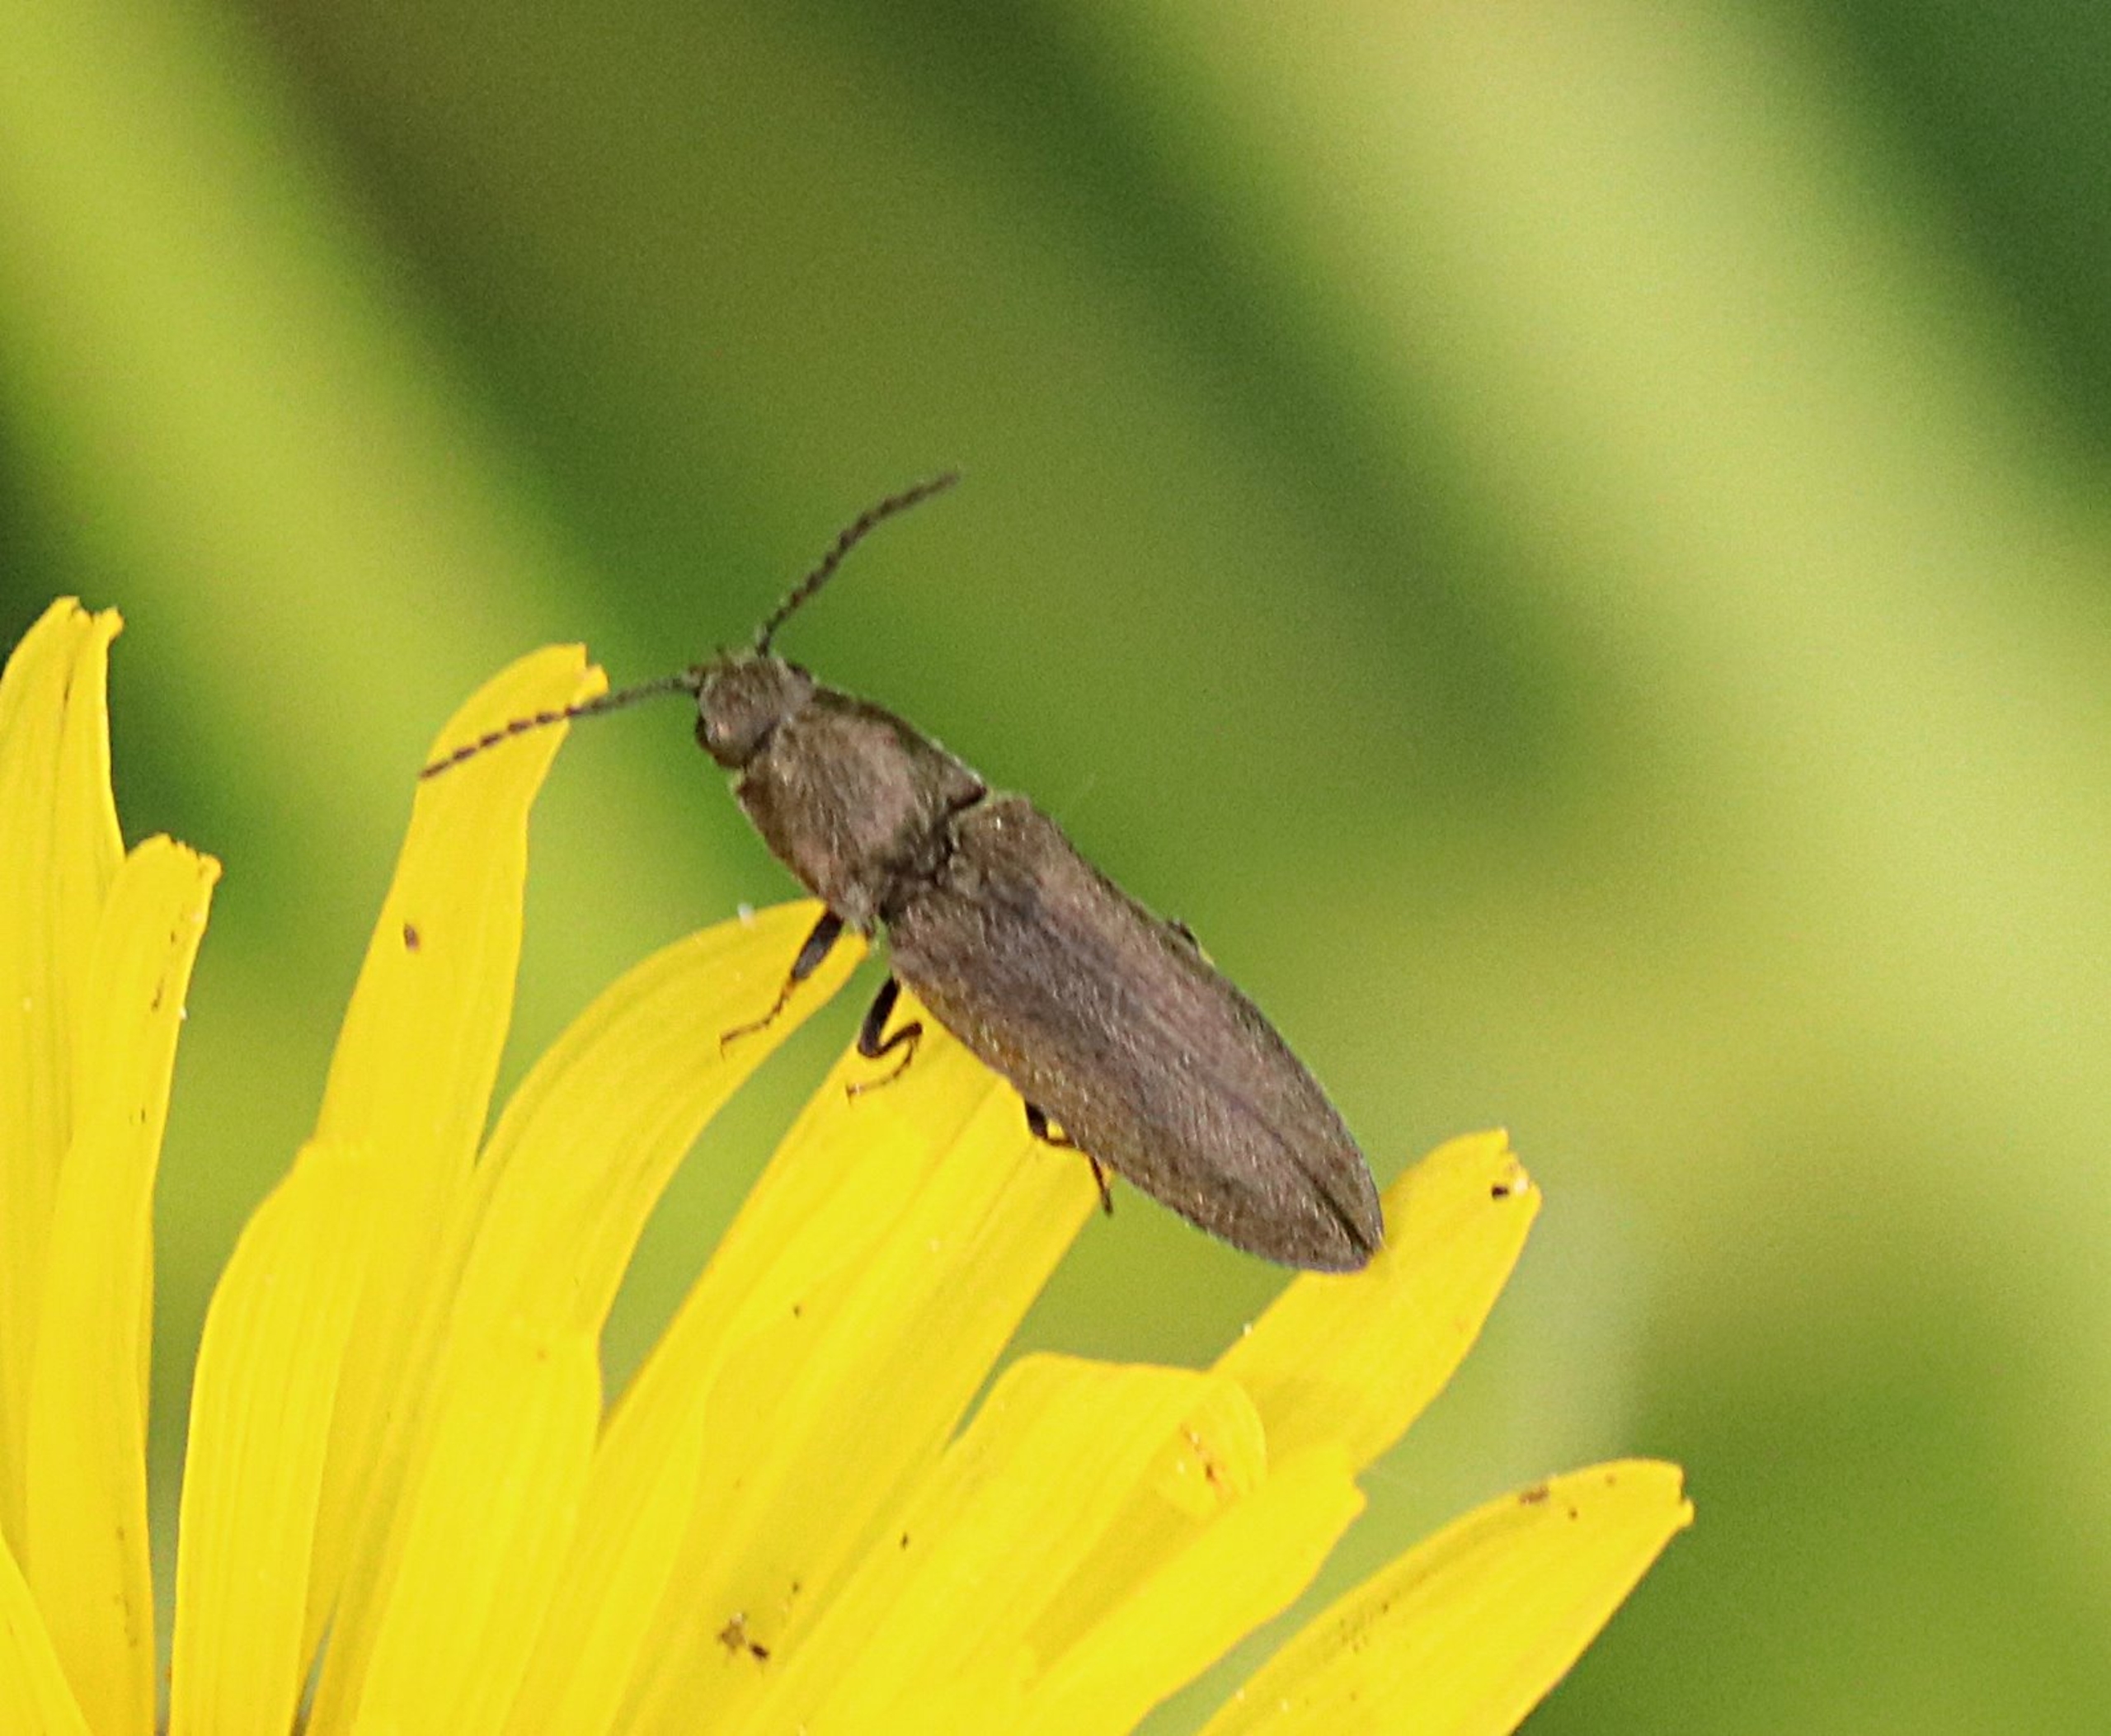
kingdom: Animalia
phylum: Arthropoda
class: Insecta
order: Coleoptera
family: Elateridae
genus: Cidnopus
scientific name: Cidnopus aeruginosus
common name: Ligebred græssmælder
